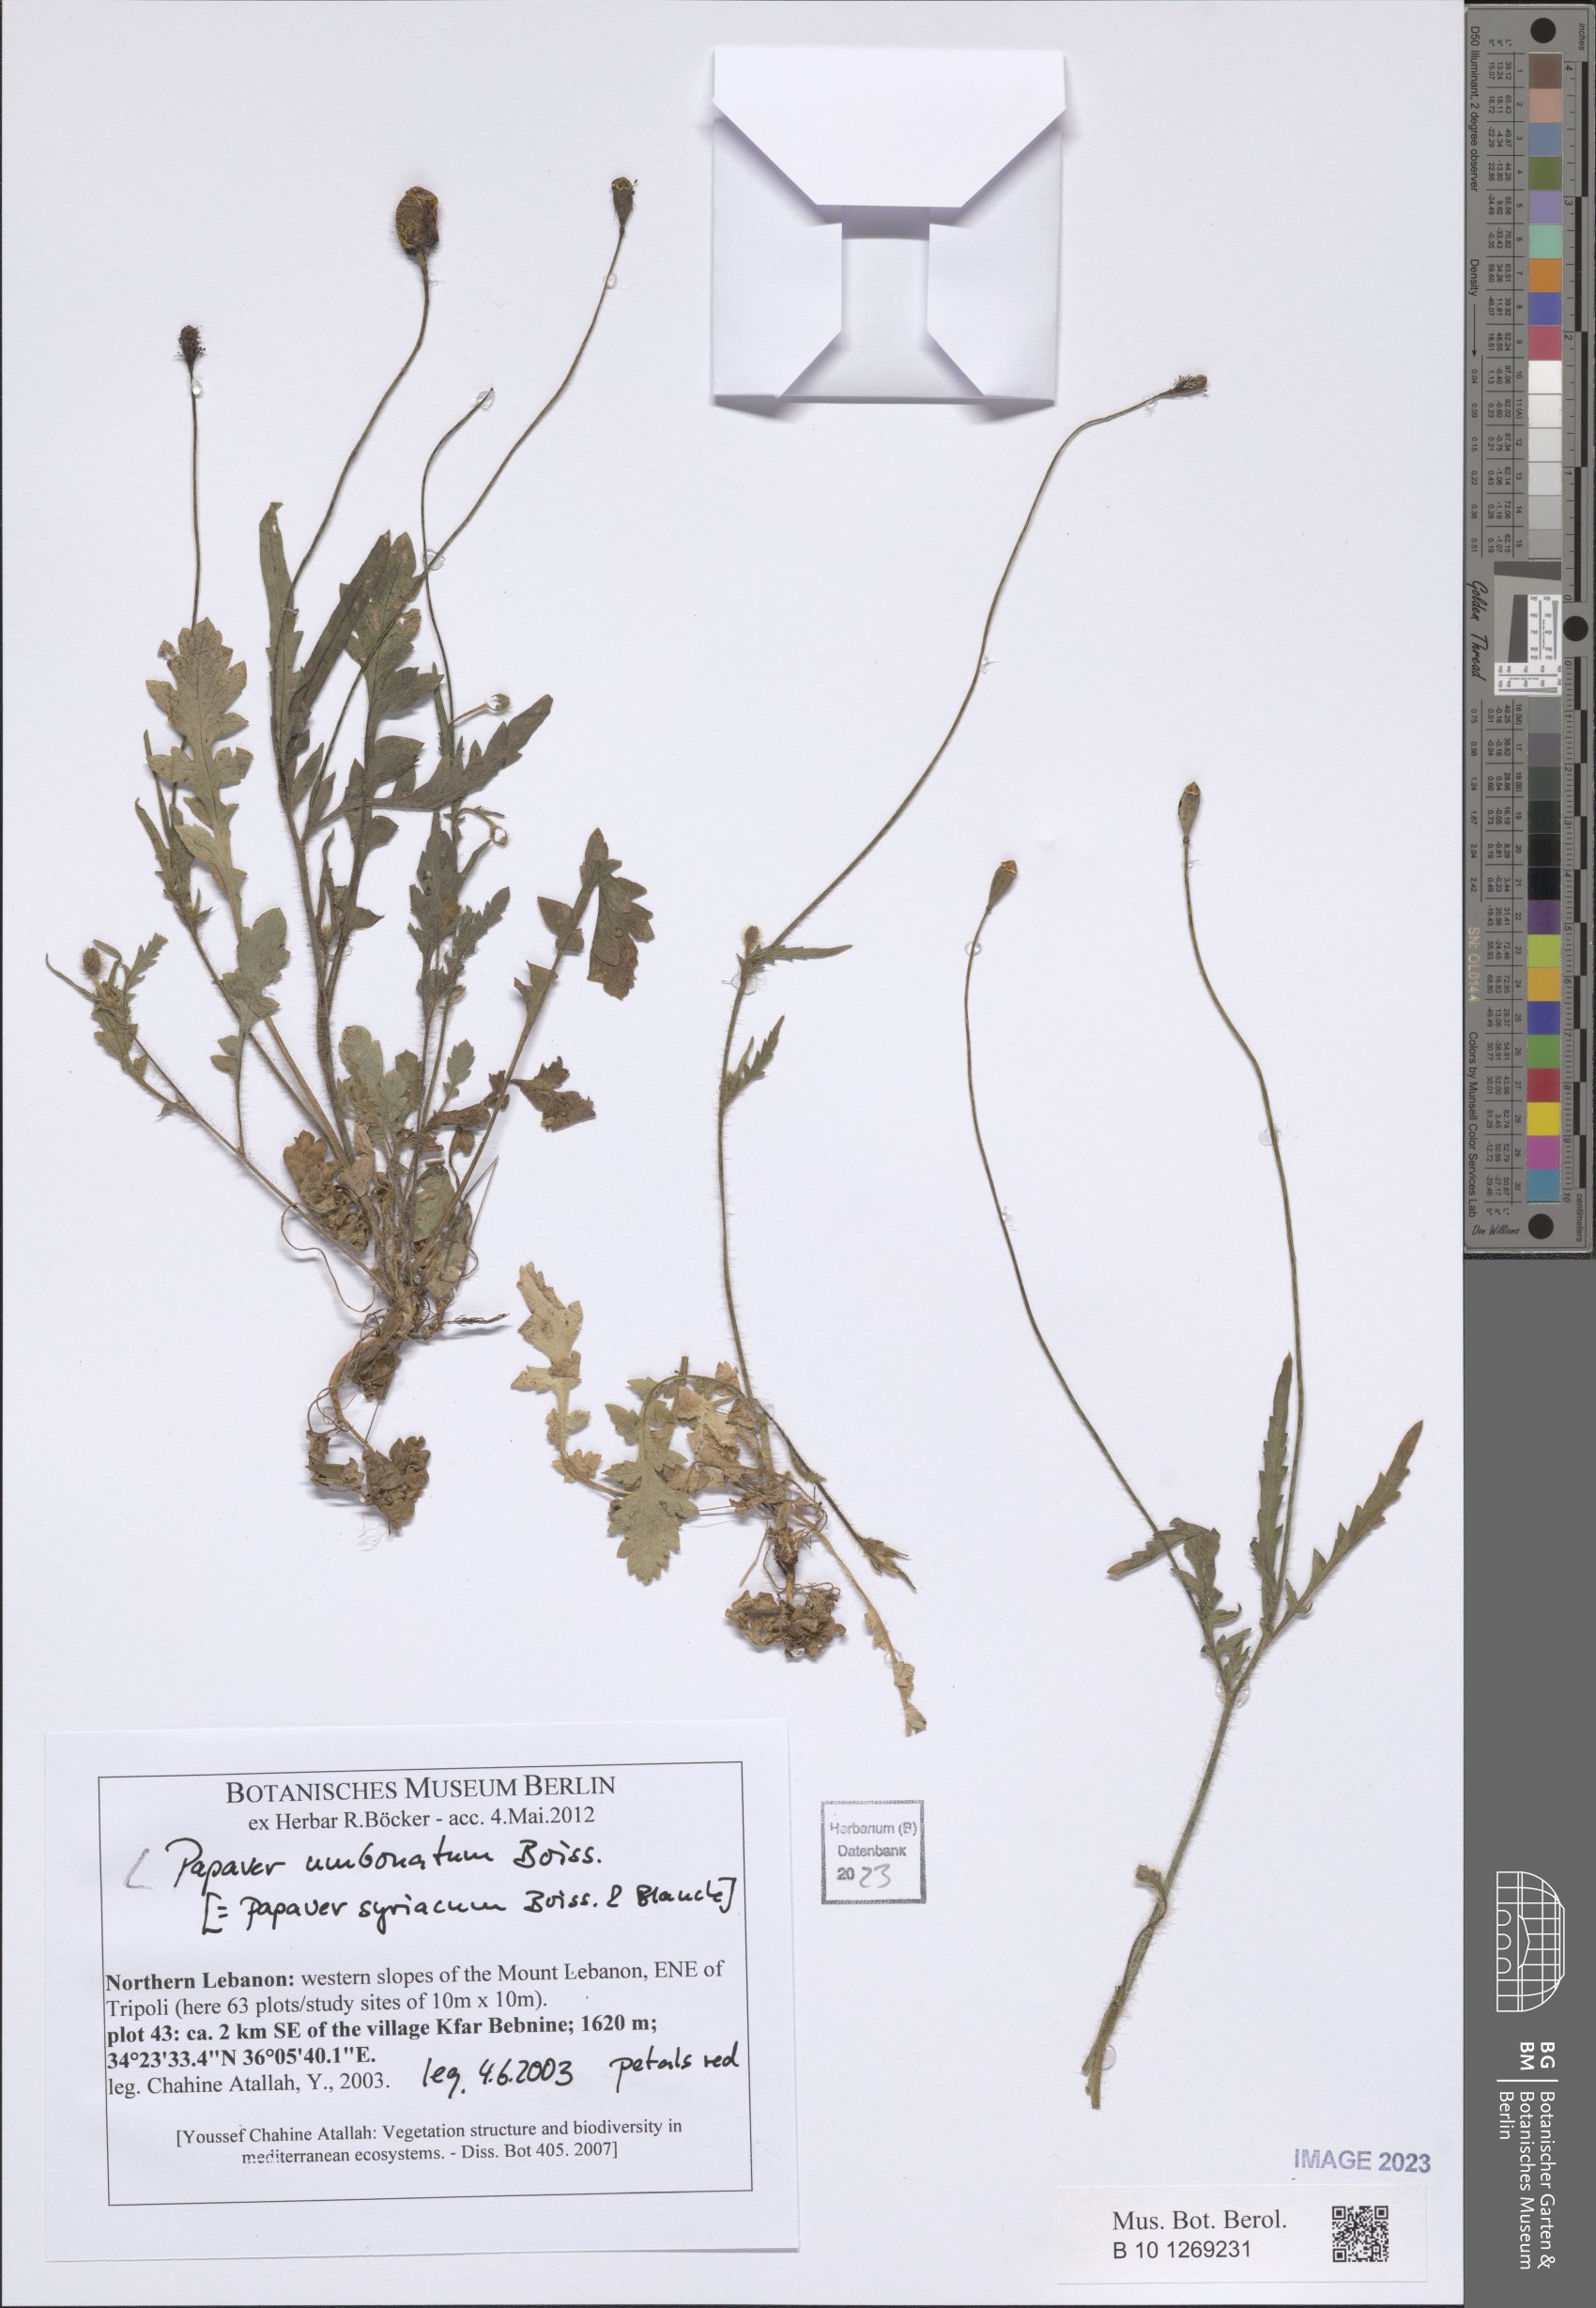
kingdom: Plantae
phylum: Tracheophyta
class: Magnoliopsida
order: Ranunculales
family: Papaveraceae
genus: Papaver
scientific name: Papaver umbonatum
